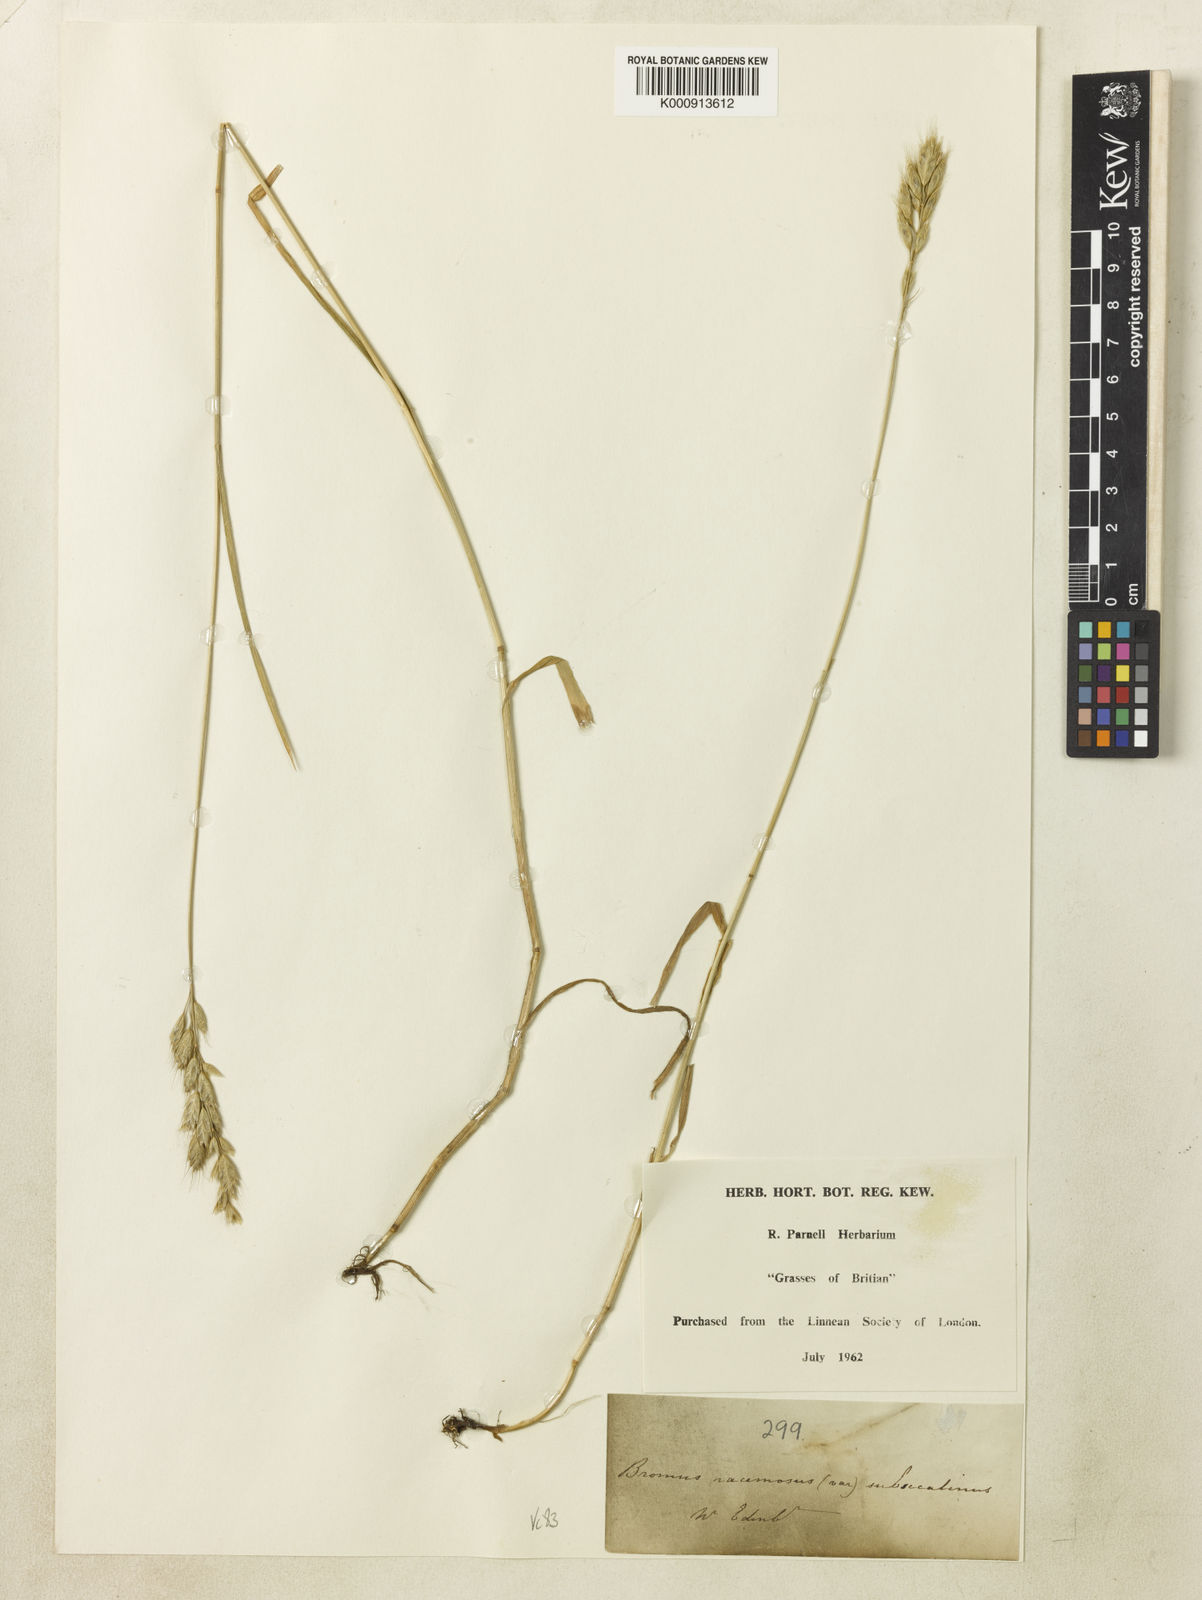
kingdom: Plantae
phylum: Tracheophyta
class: Liliopsida
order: Poales
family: Poaceae
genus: Bromus
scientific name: Bromus racemosus
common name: Bald brome
